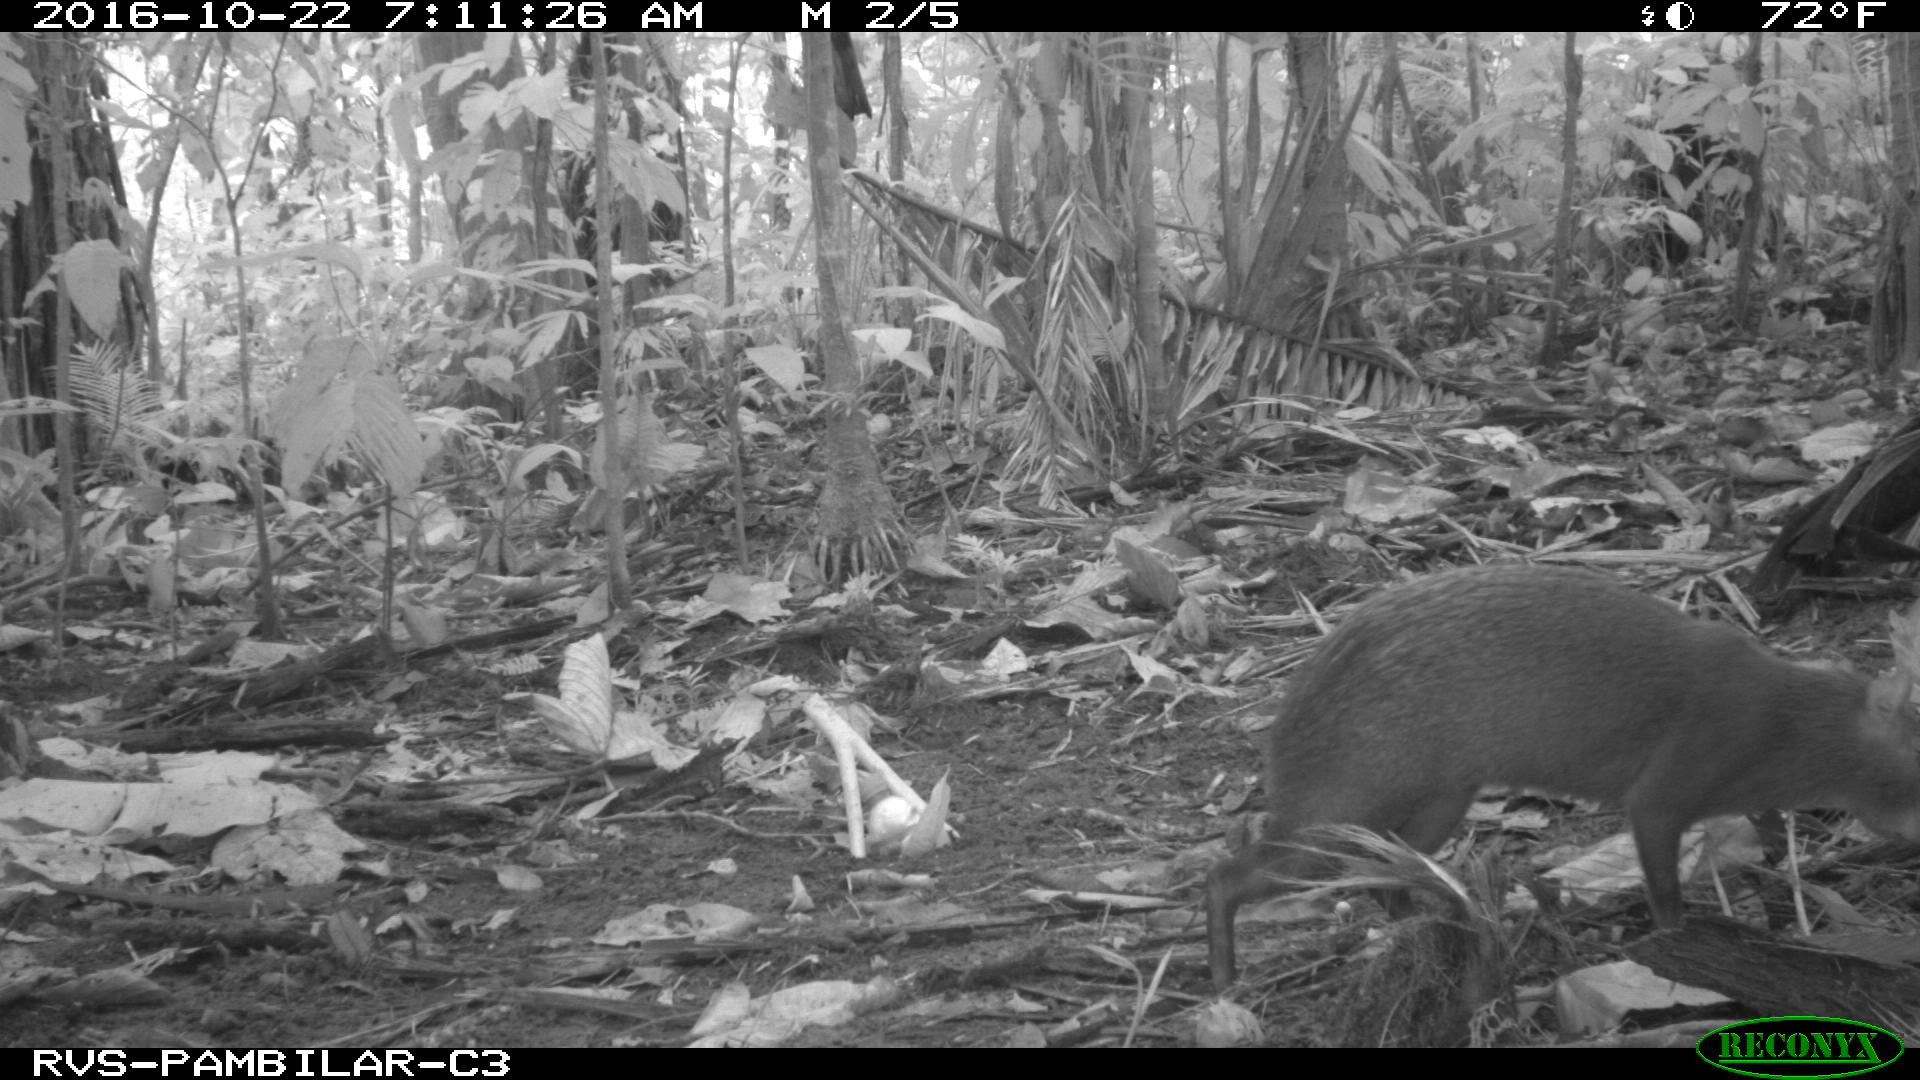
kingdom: Animalia
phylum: Chordata
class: Mammalia
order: Rodentia
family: Dasyproctidae
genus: Dasyprocta
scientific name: Dasyprocta punctata
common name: Central american agouti
